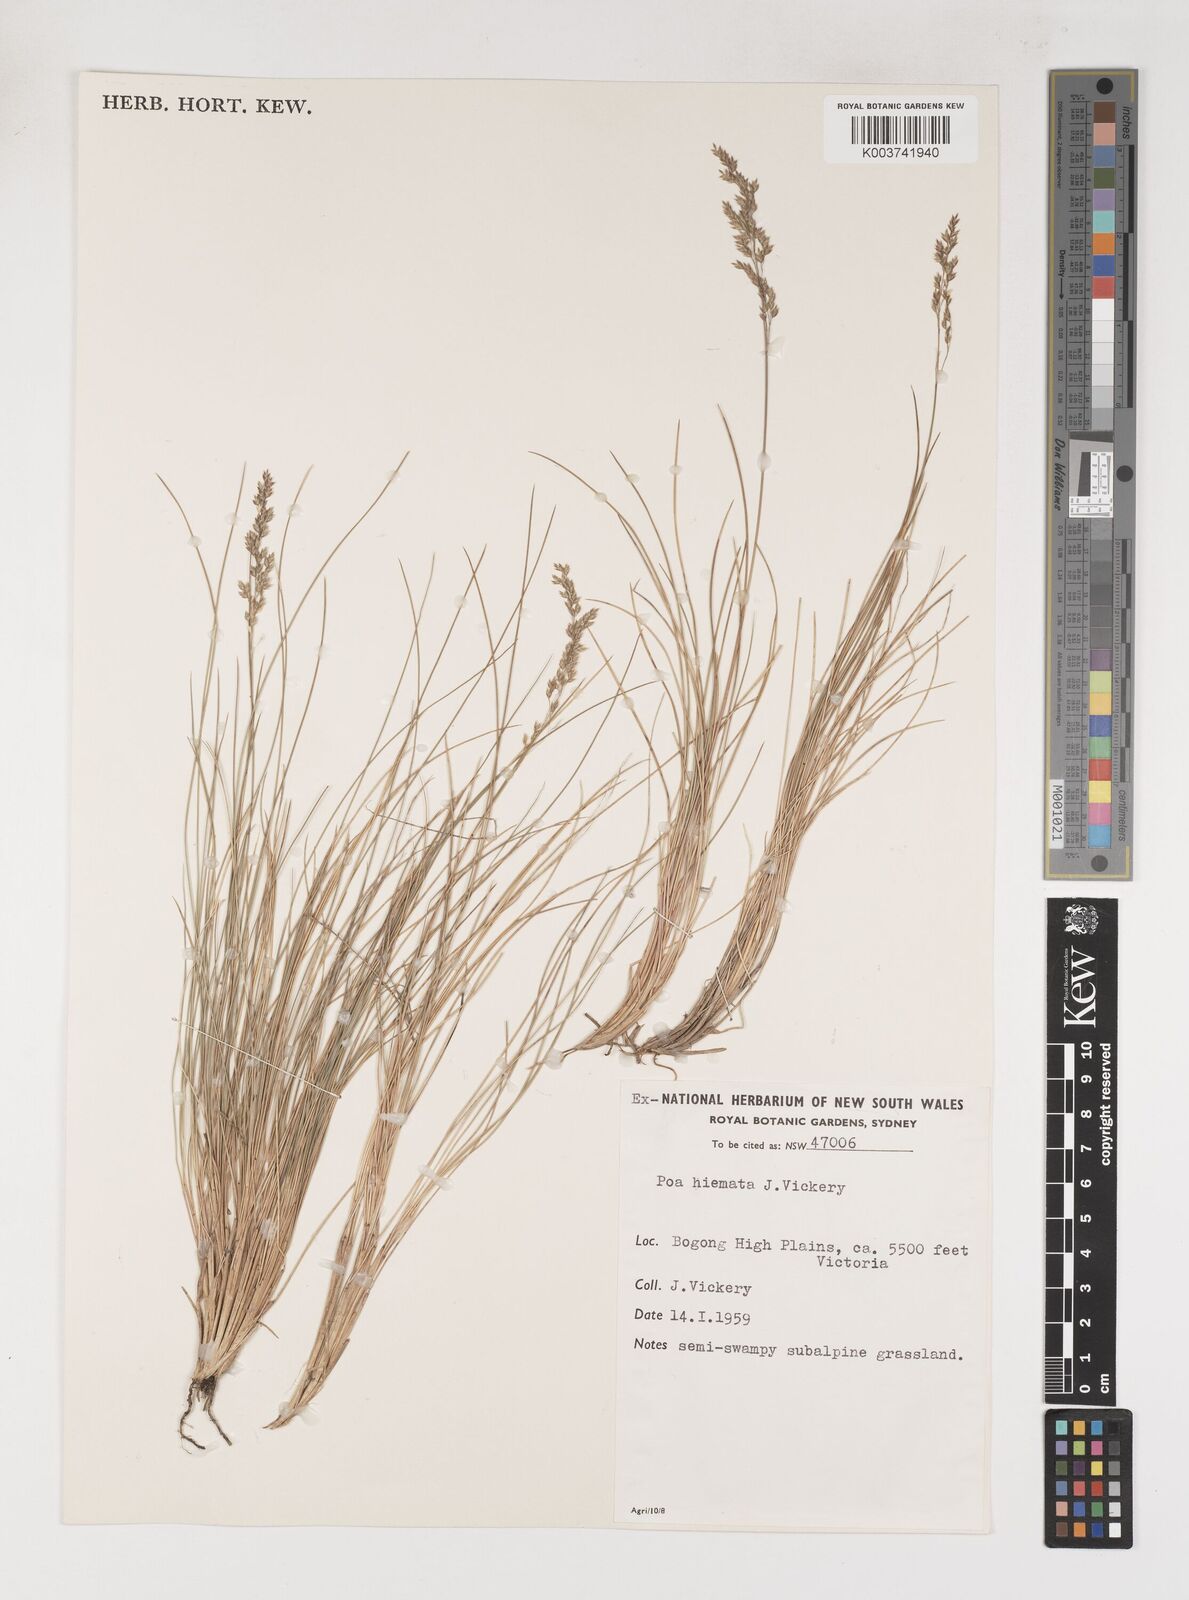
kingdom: Plantae
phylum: Tracheophyta
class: Liliopsida
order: Poales
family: Poaceae
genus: Poa
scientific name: Poa hiemata
